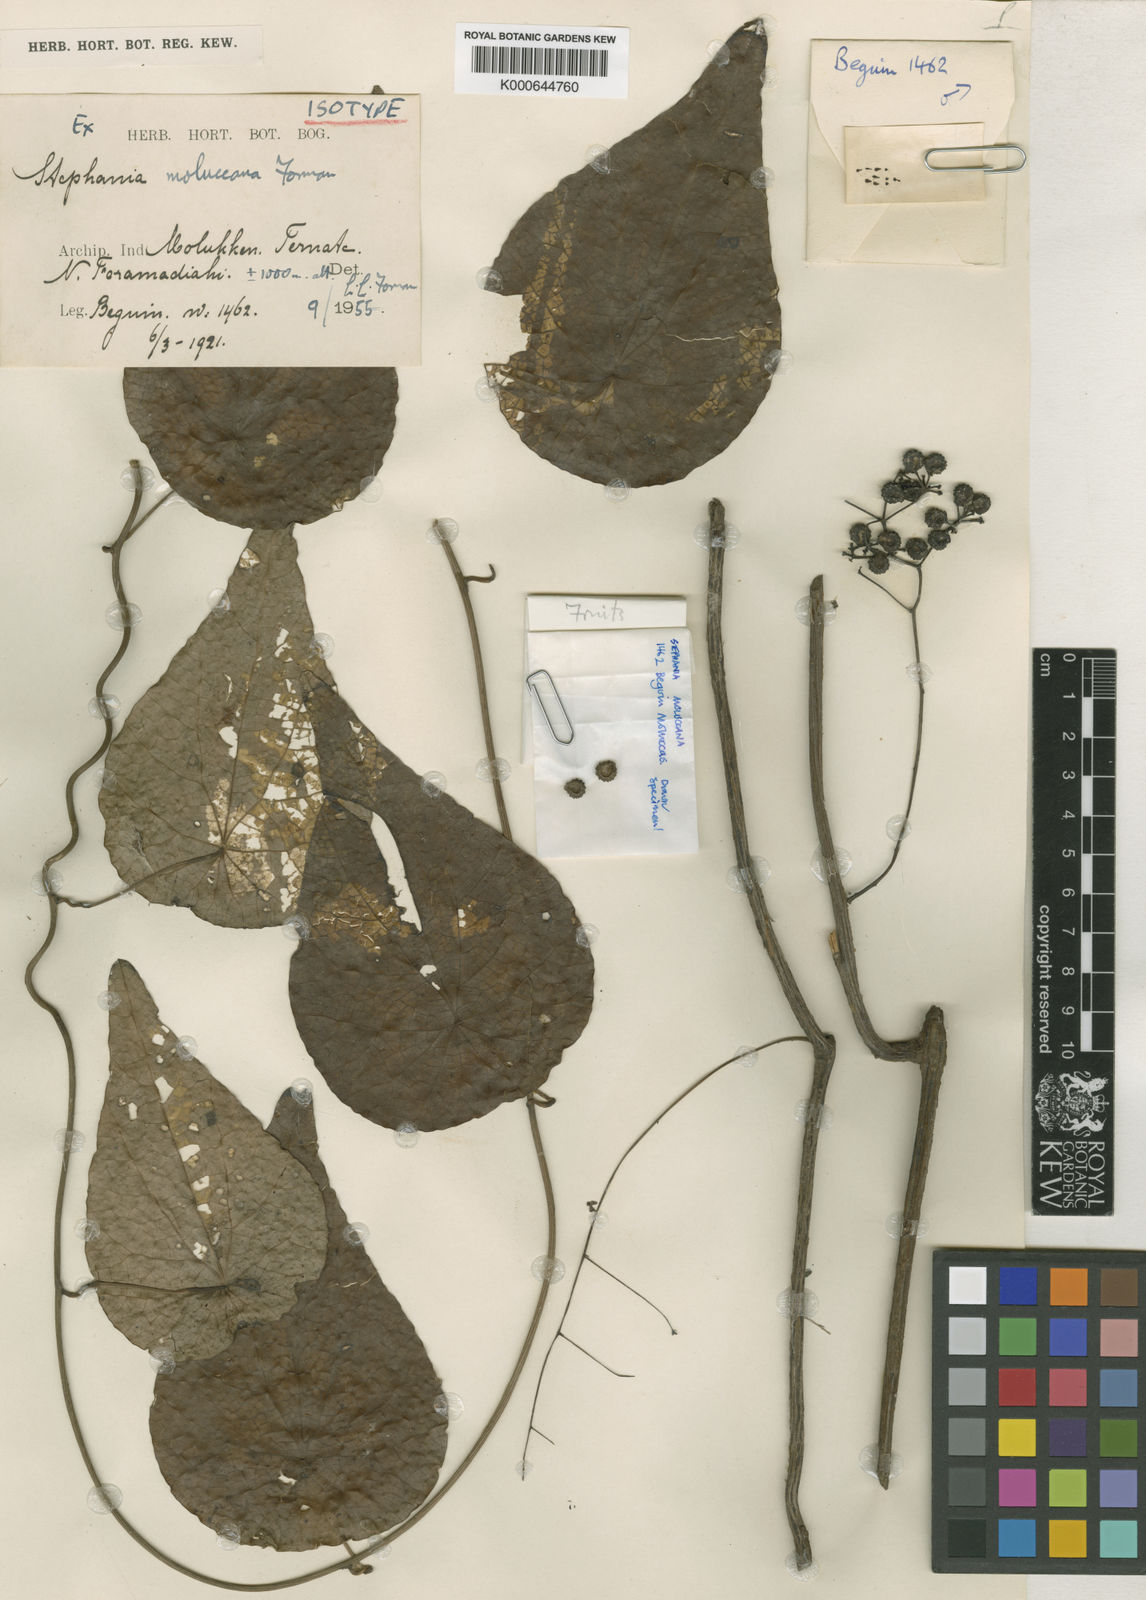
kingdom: Plantae
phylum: Tracheophyta
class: Magnoliopsida
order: Ranunculales
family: Menispermaceae
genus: Stephania
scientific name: Stephania moluccana
